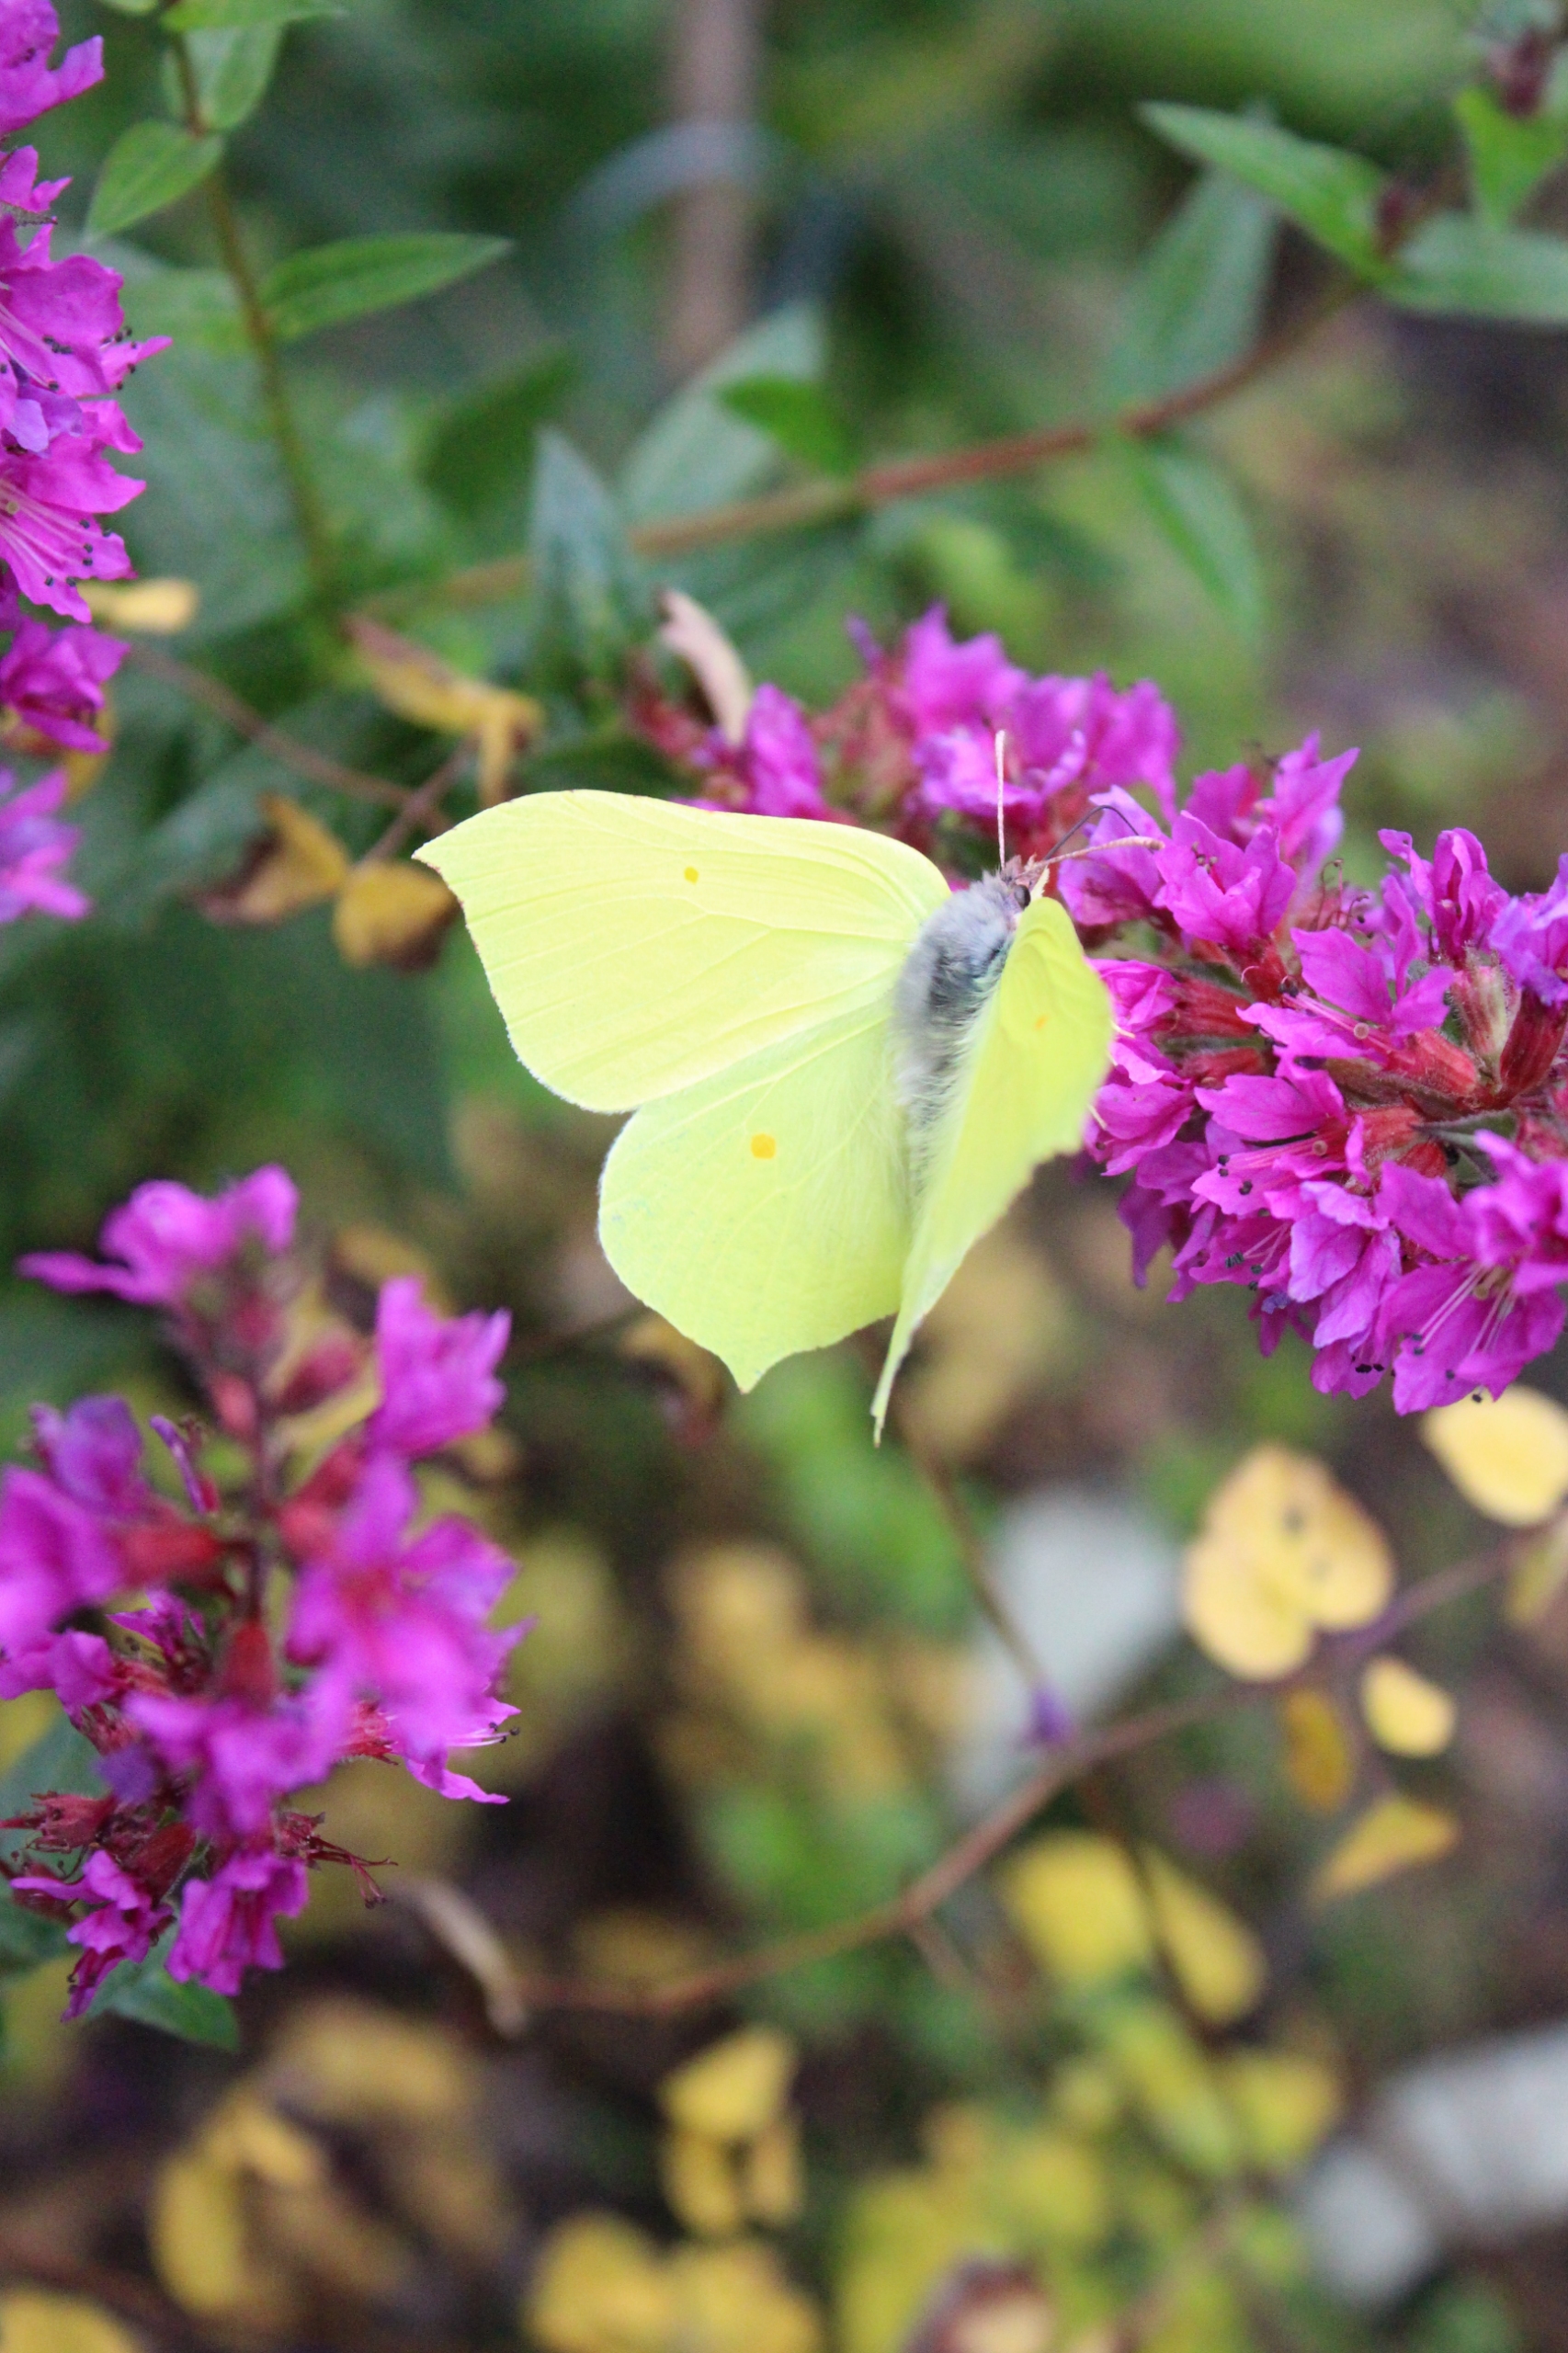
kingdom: Animalia
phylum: Arthropoda
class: Insecta
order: Lepidoptera
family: Pieridae
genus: Gonepteryx
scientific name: Gonepteryx rhamni
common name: Citronsommerfugl
